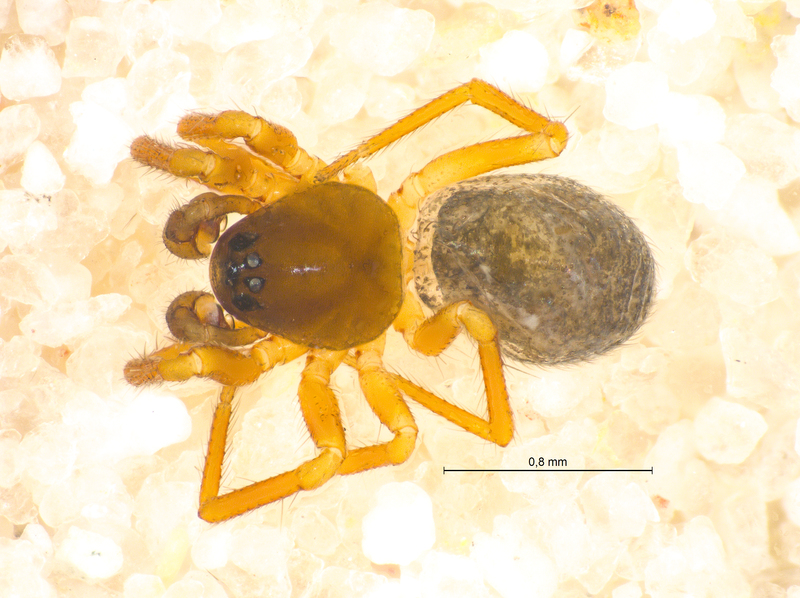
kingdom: Animalia
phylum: Arthropoda
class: Arachnida
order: Araneae
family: Linyphiidae
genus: Maso
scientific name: Maso sundevalli
